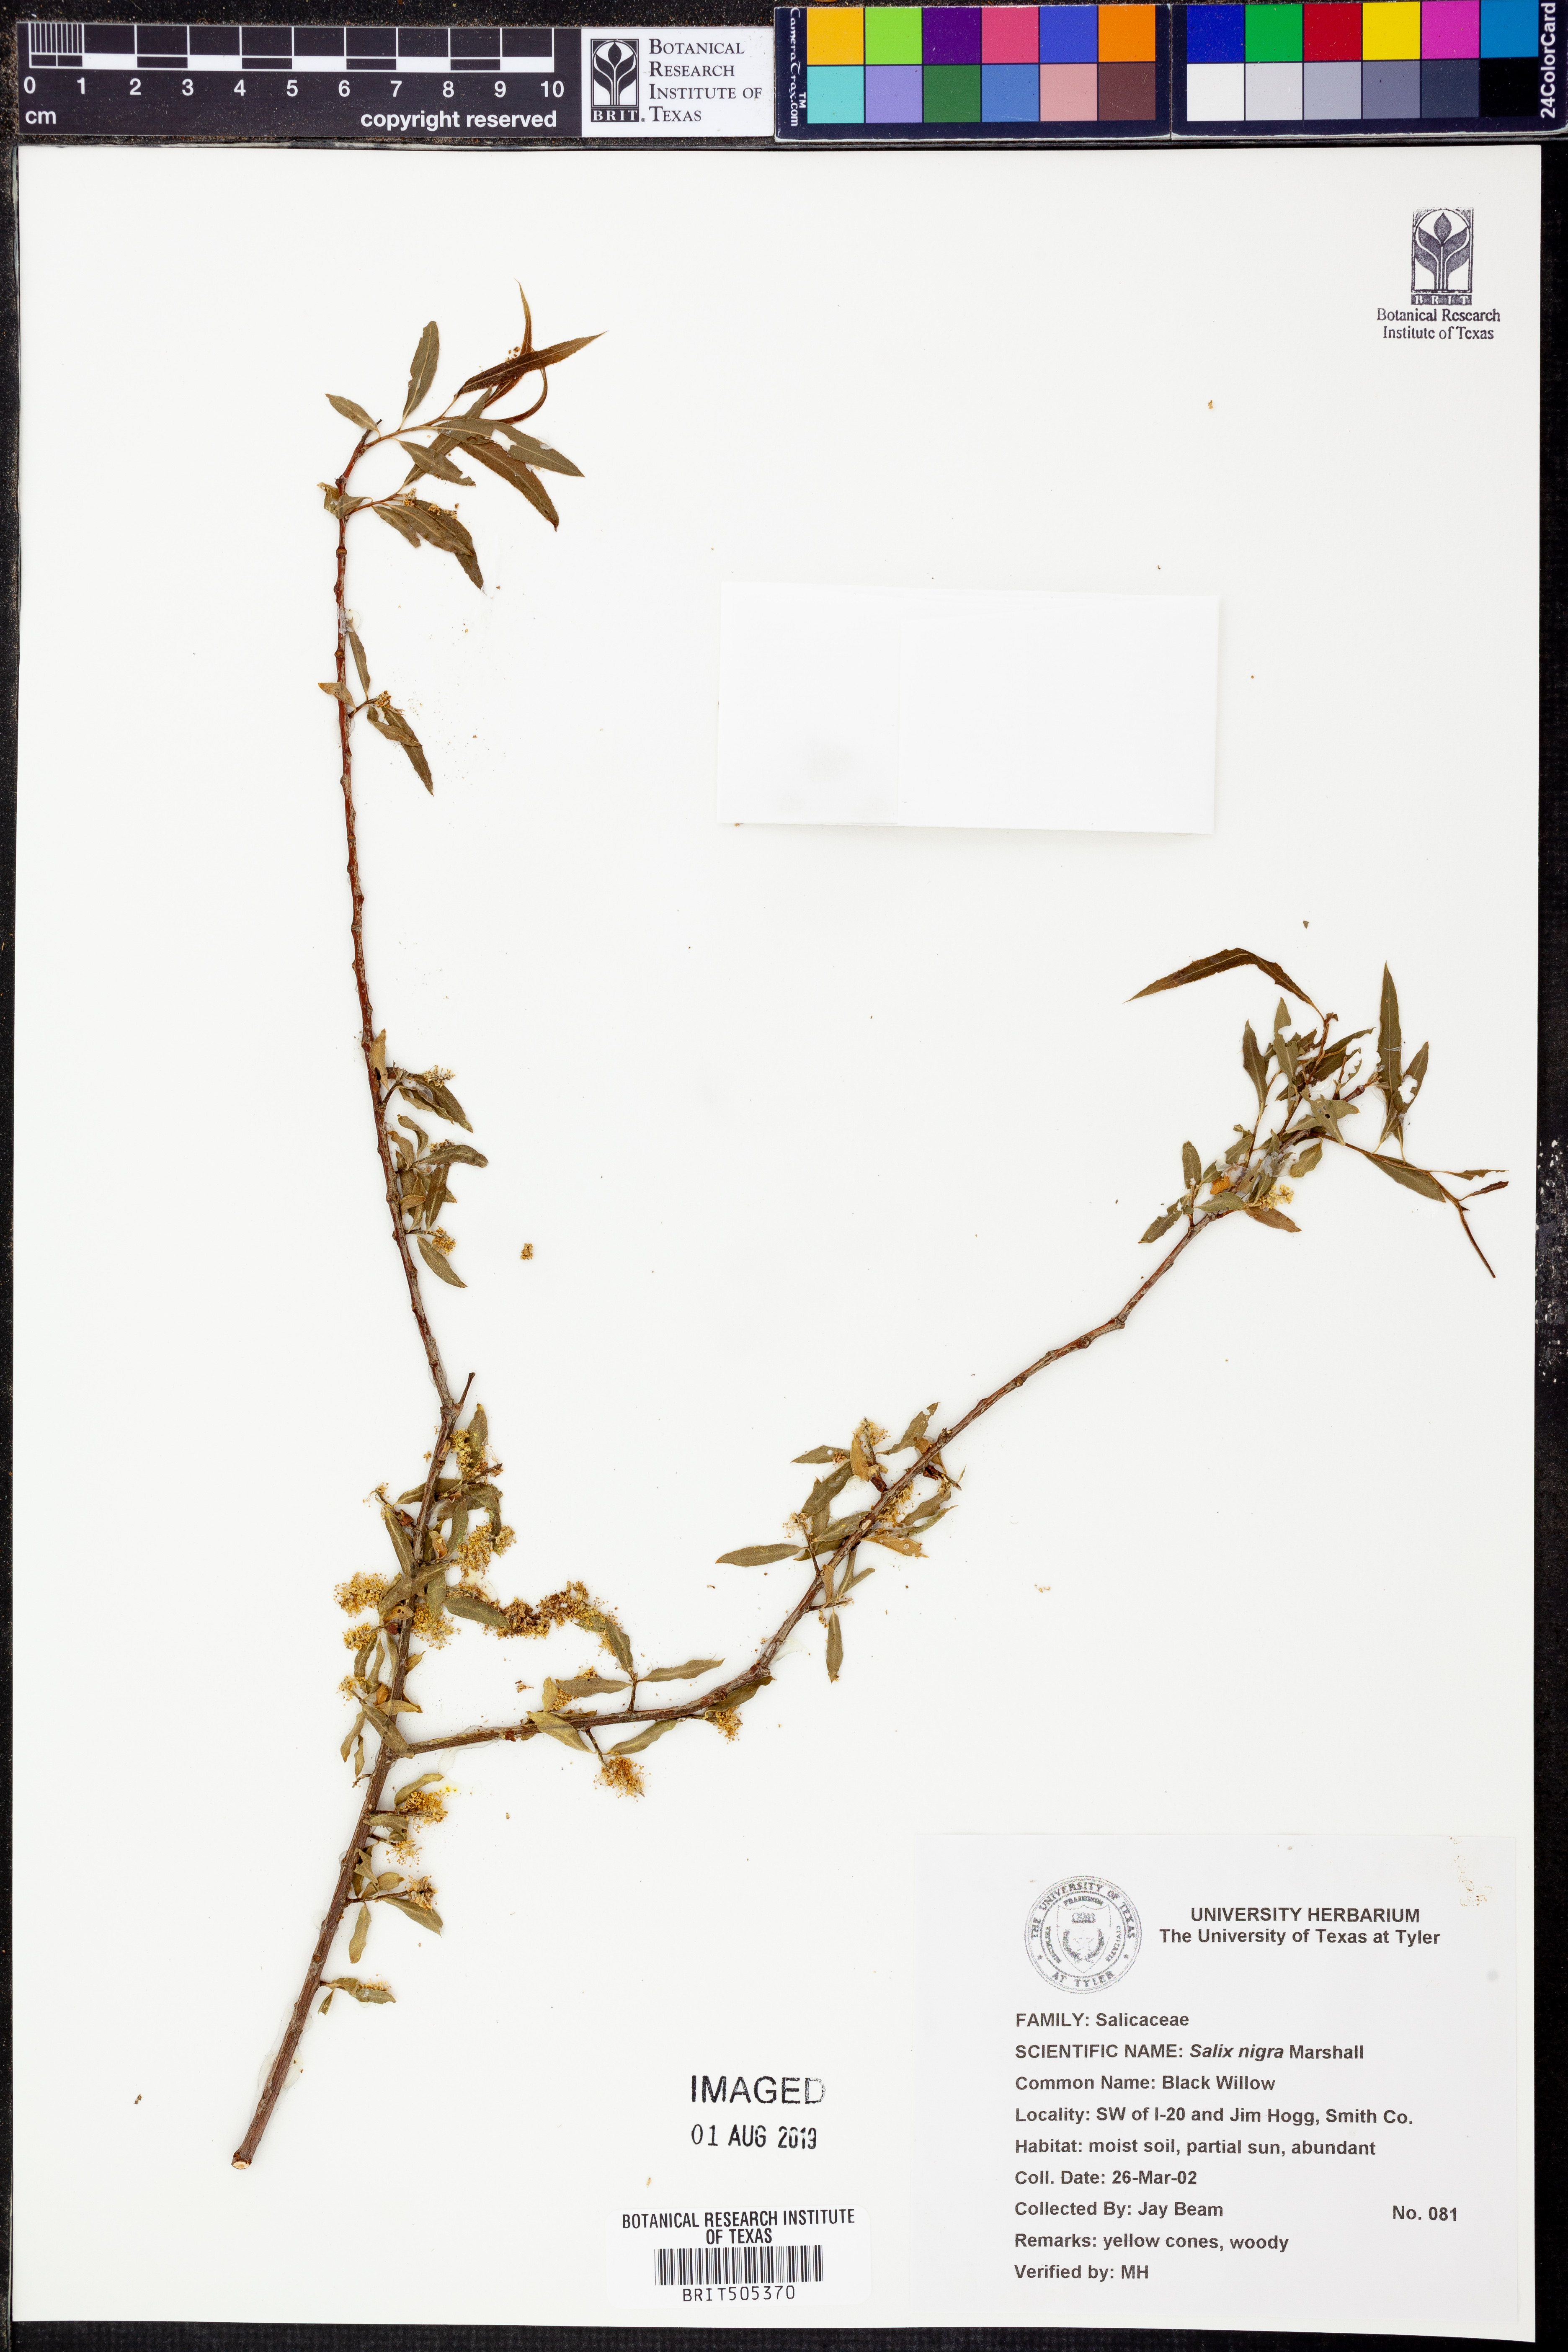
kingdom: Plantae
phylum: Tracheophyta
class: Magnoliopsida
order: Malpighiales
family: Salicaceae
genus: Salix
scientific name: Salix nigra
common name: Black willow
